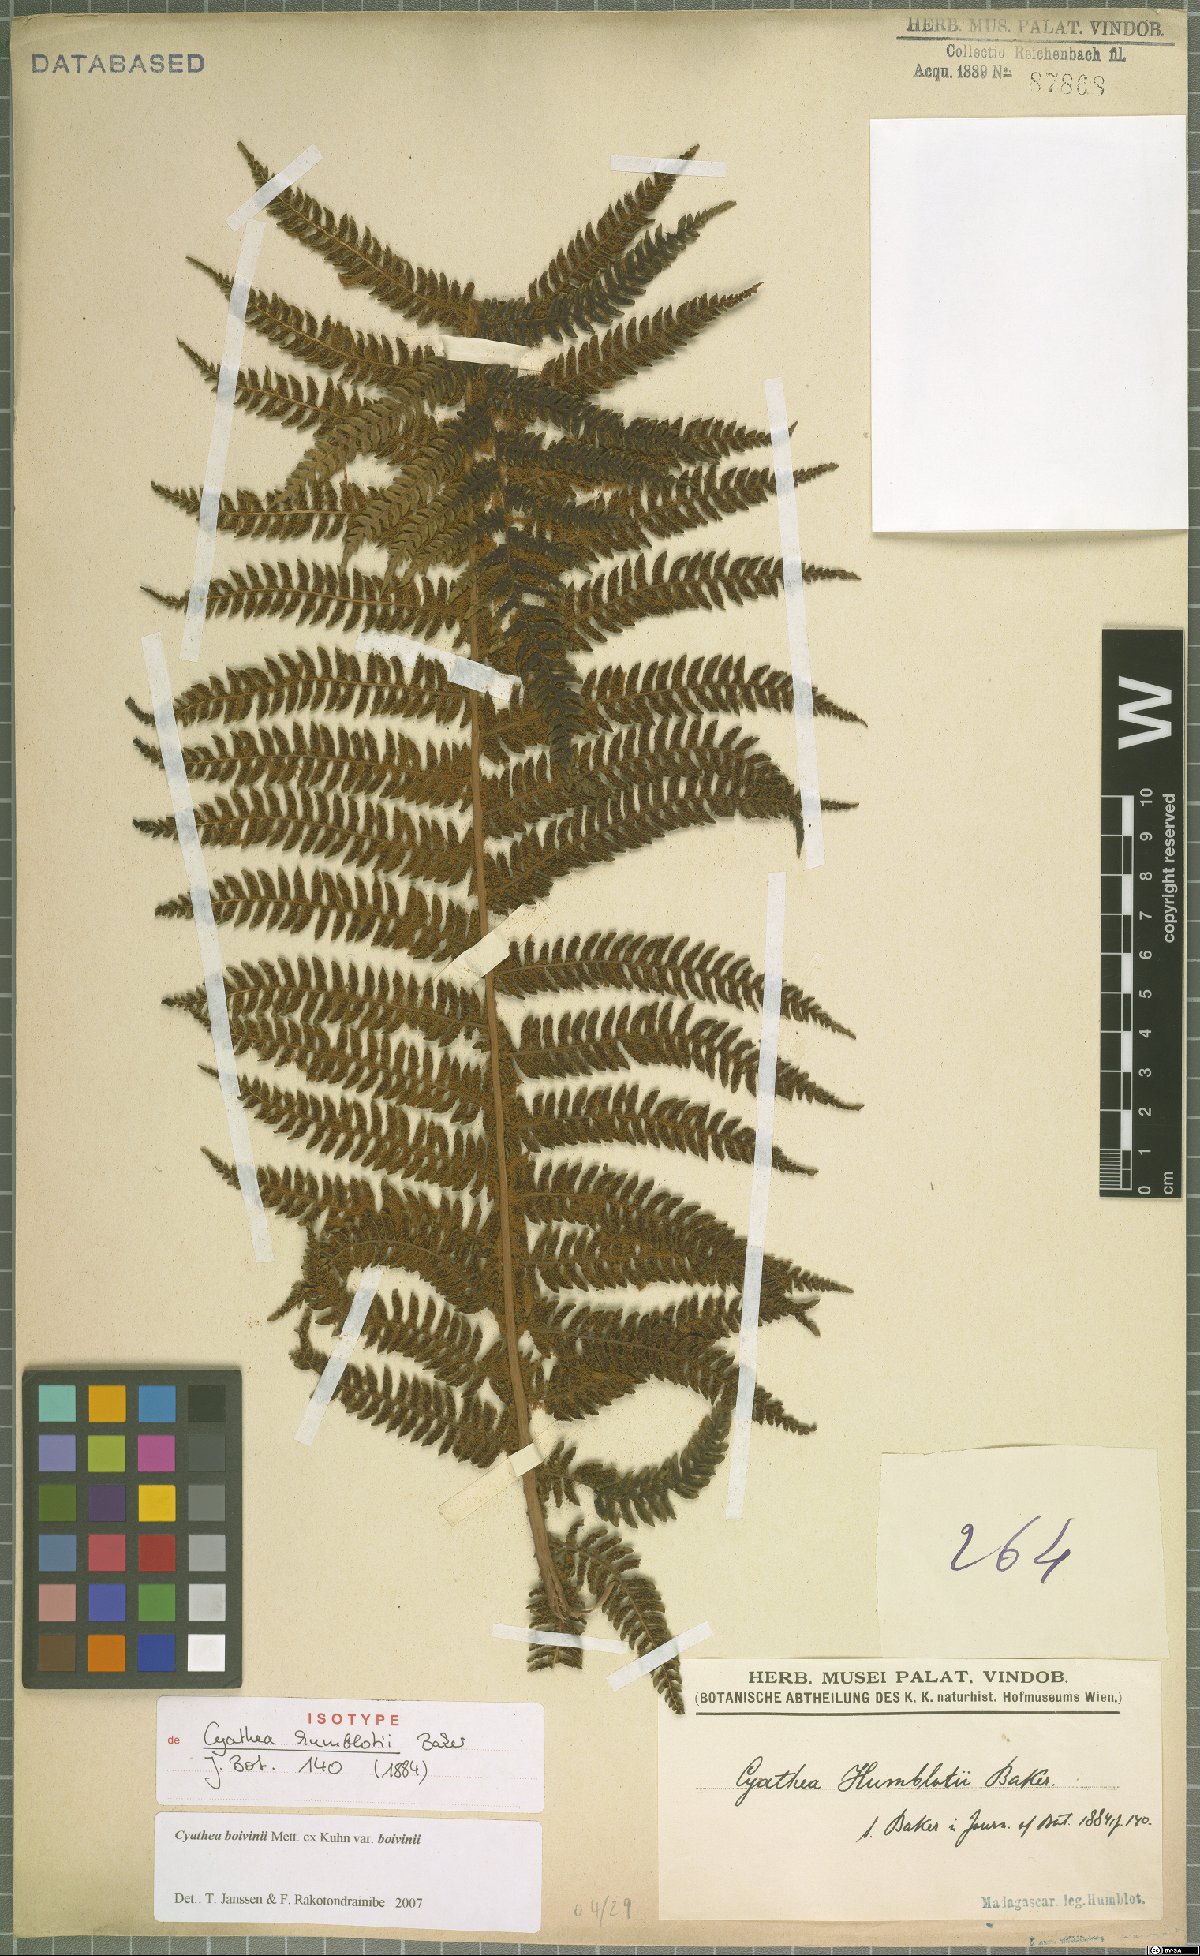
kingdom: Plantae
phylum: Tracheophyta
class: Polypodiopsida
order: Cyatheales
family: Cyatheaceae
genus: Cyathea
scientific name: Cyathea boivinii
